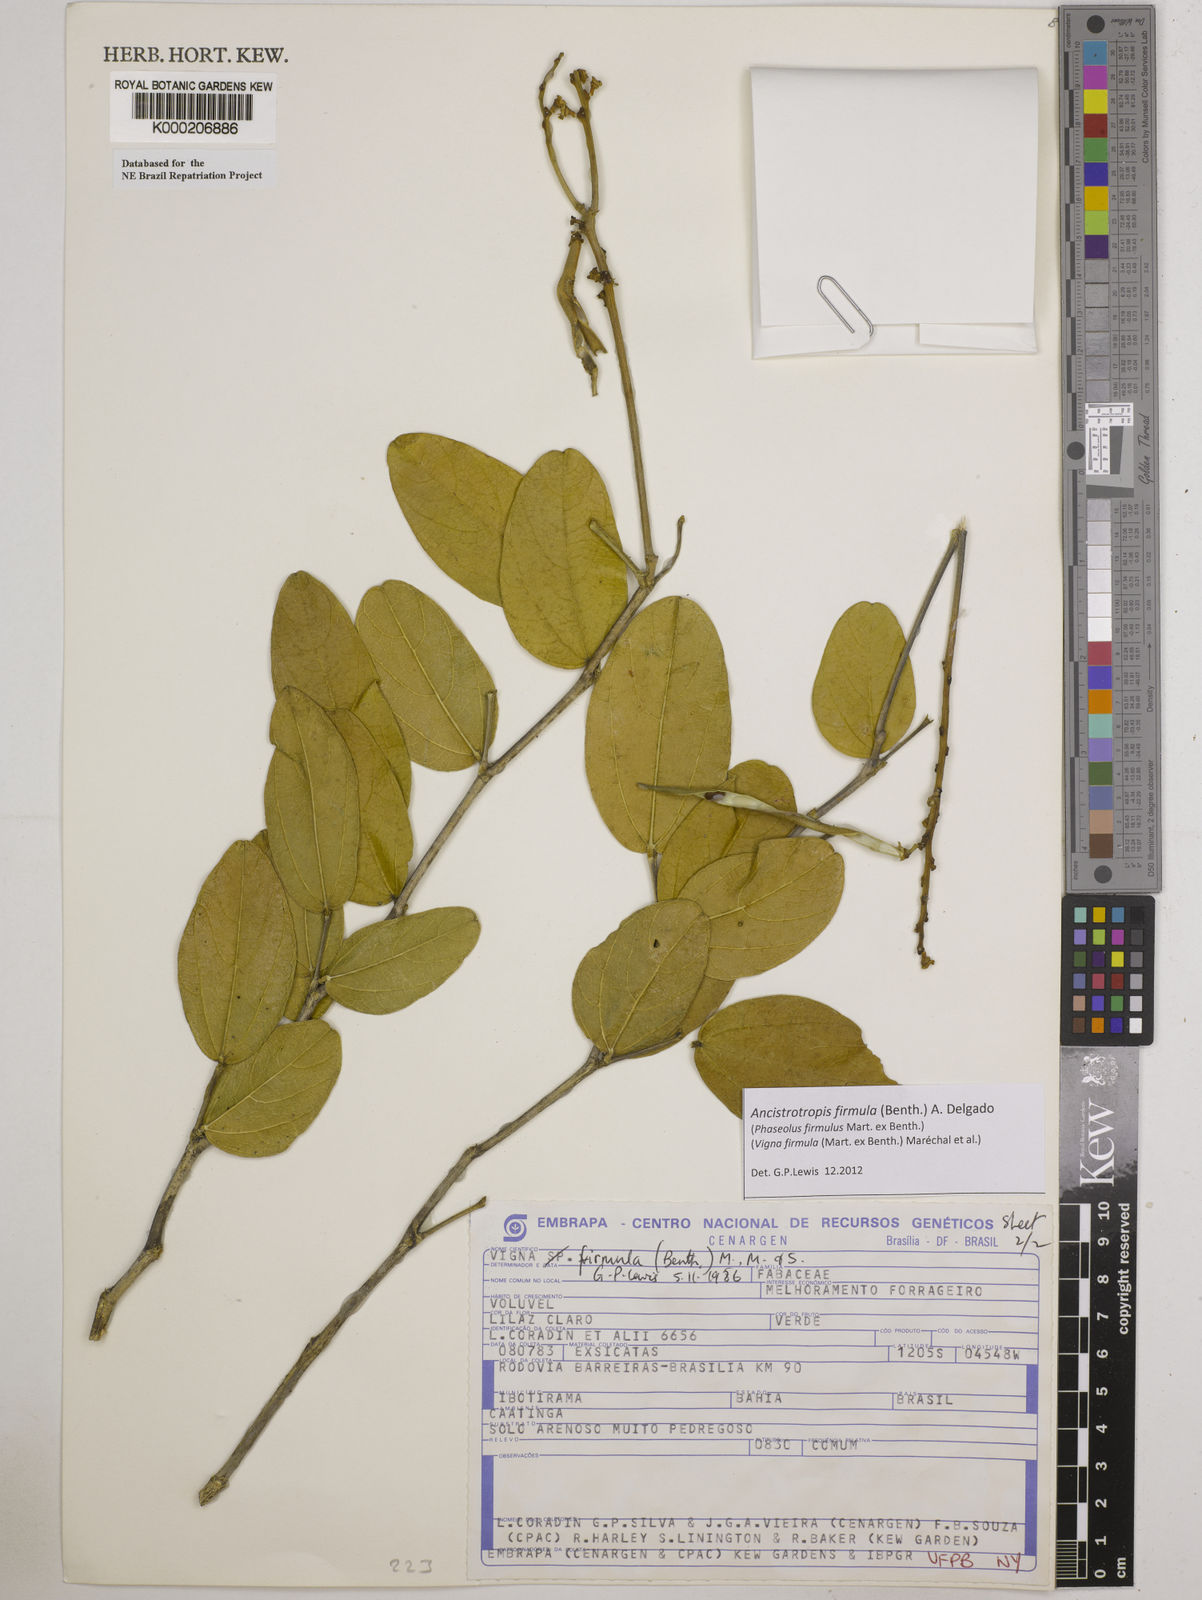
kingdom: Plantae
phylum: Tracheophyta
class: Magnoliopsida
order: Fabales
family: Fabaceae
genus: Vigna
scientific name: Vigna
